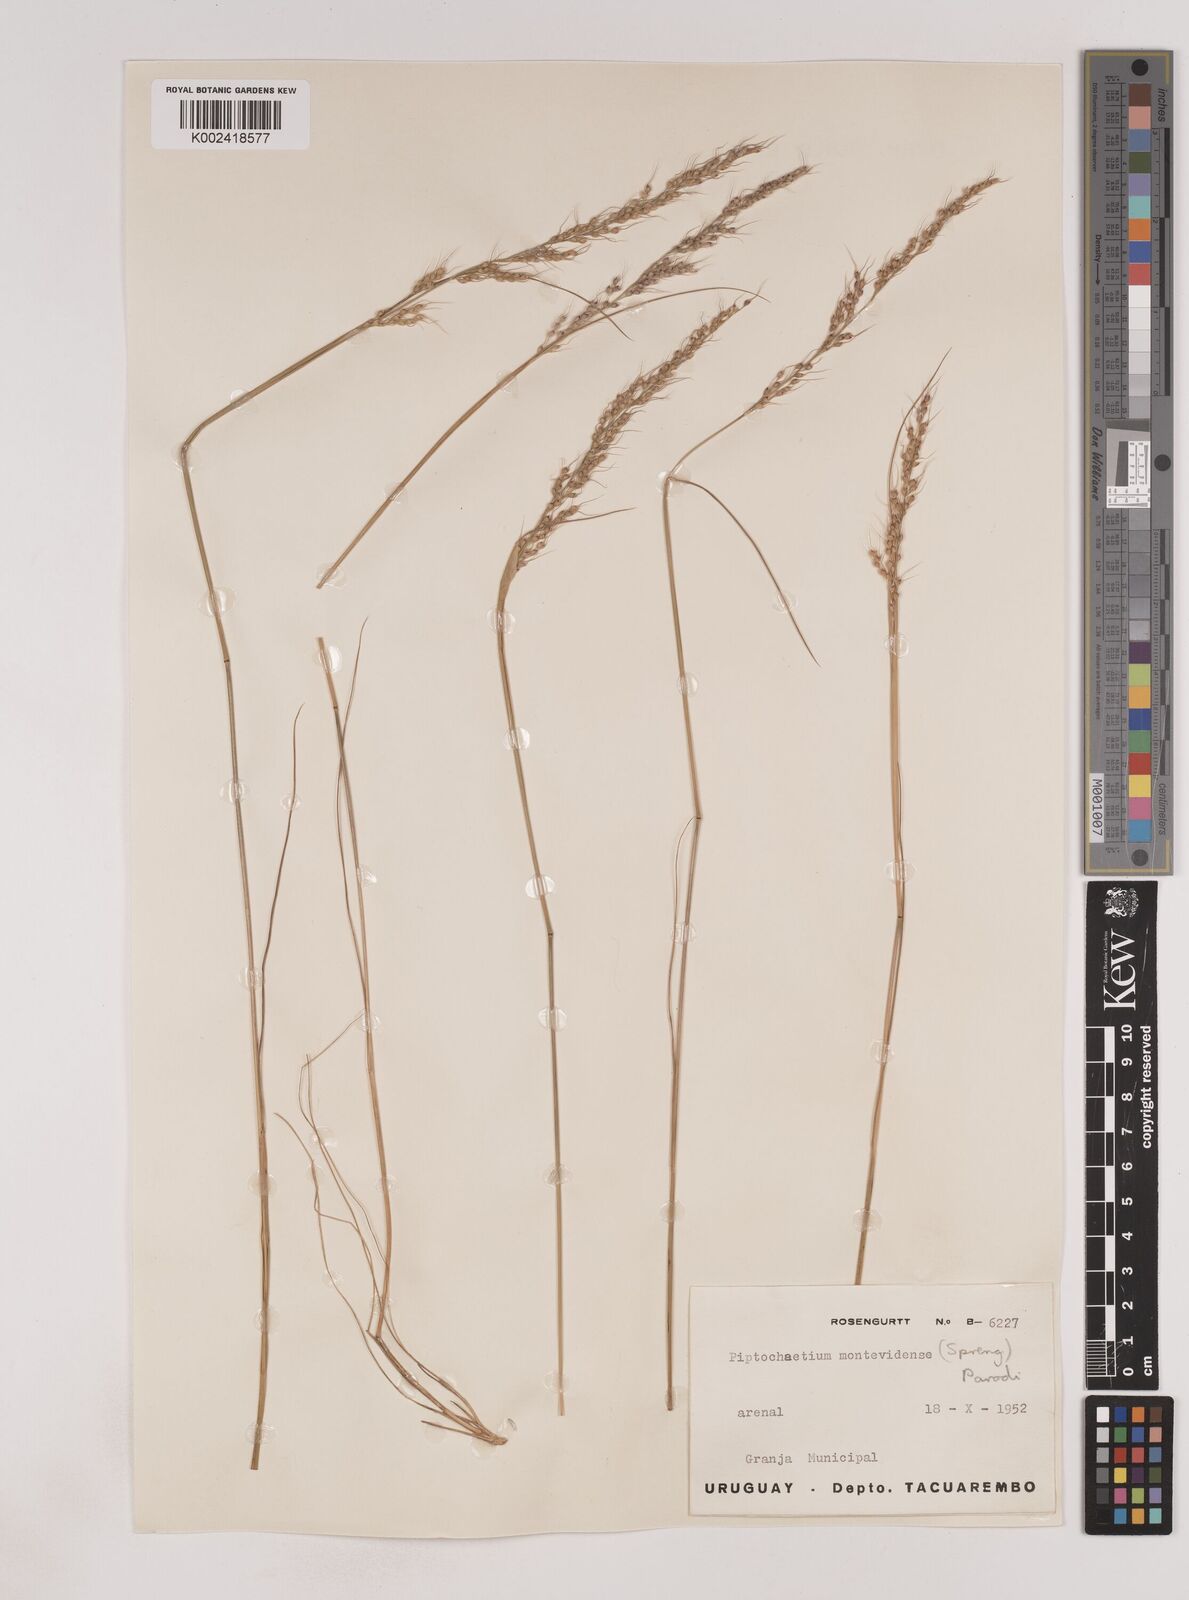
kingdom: Plantae
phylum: Tracheophyta
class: Liliopsida
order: Poales
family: Poaceae
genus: Piptochaetium
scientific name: Piptochaetium montevidense
